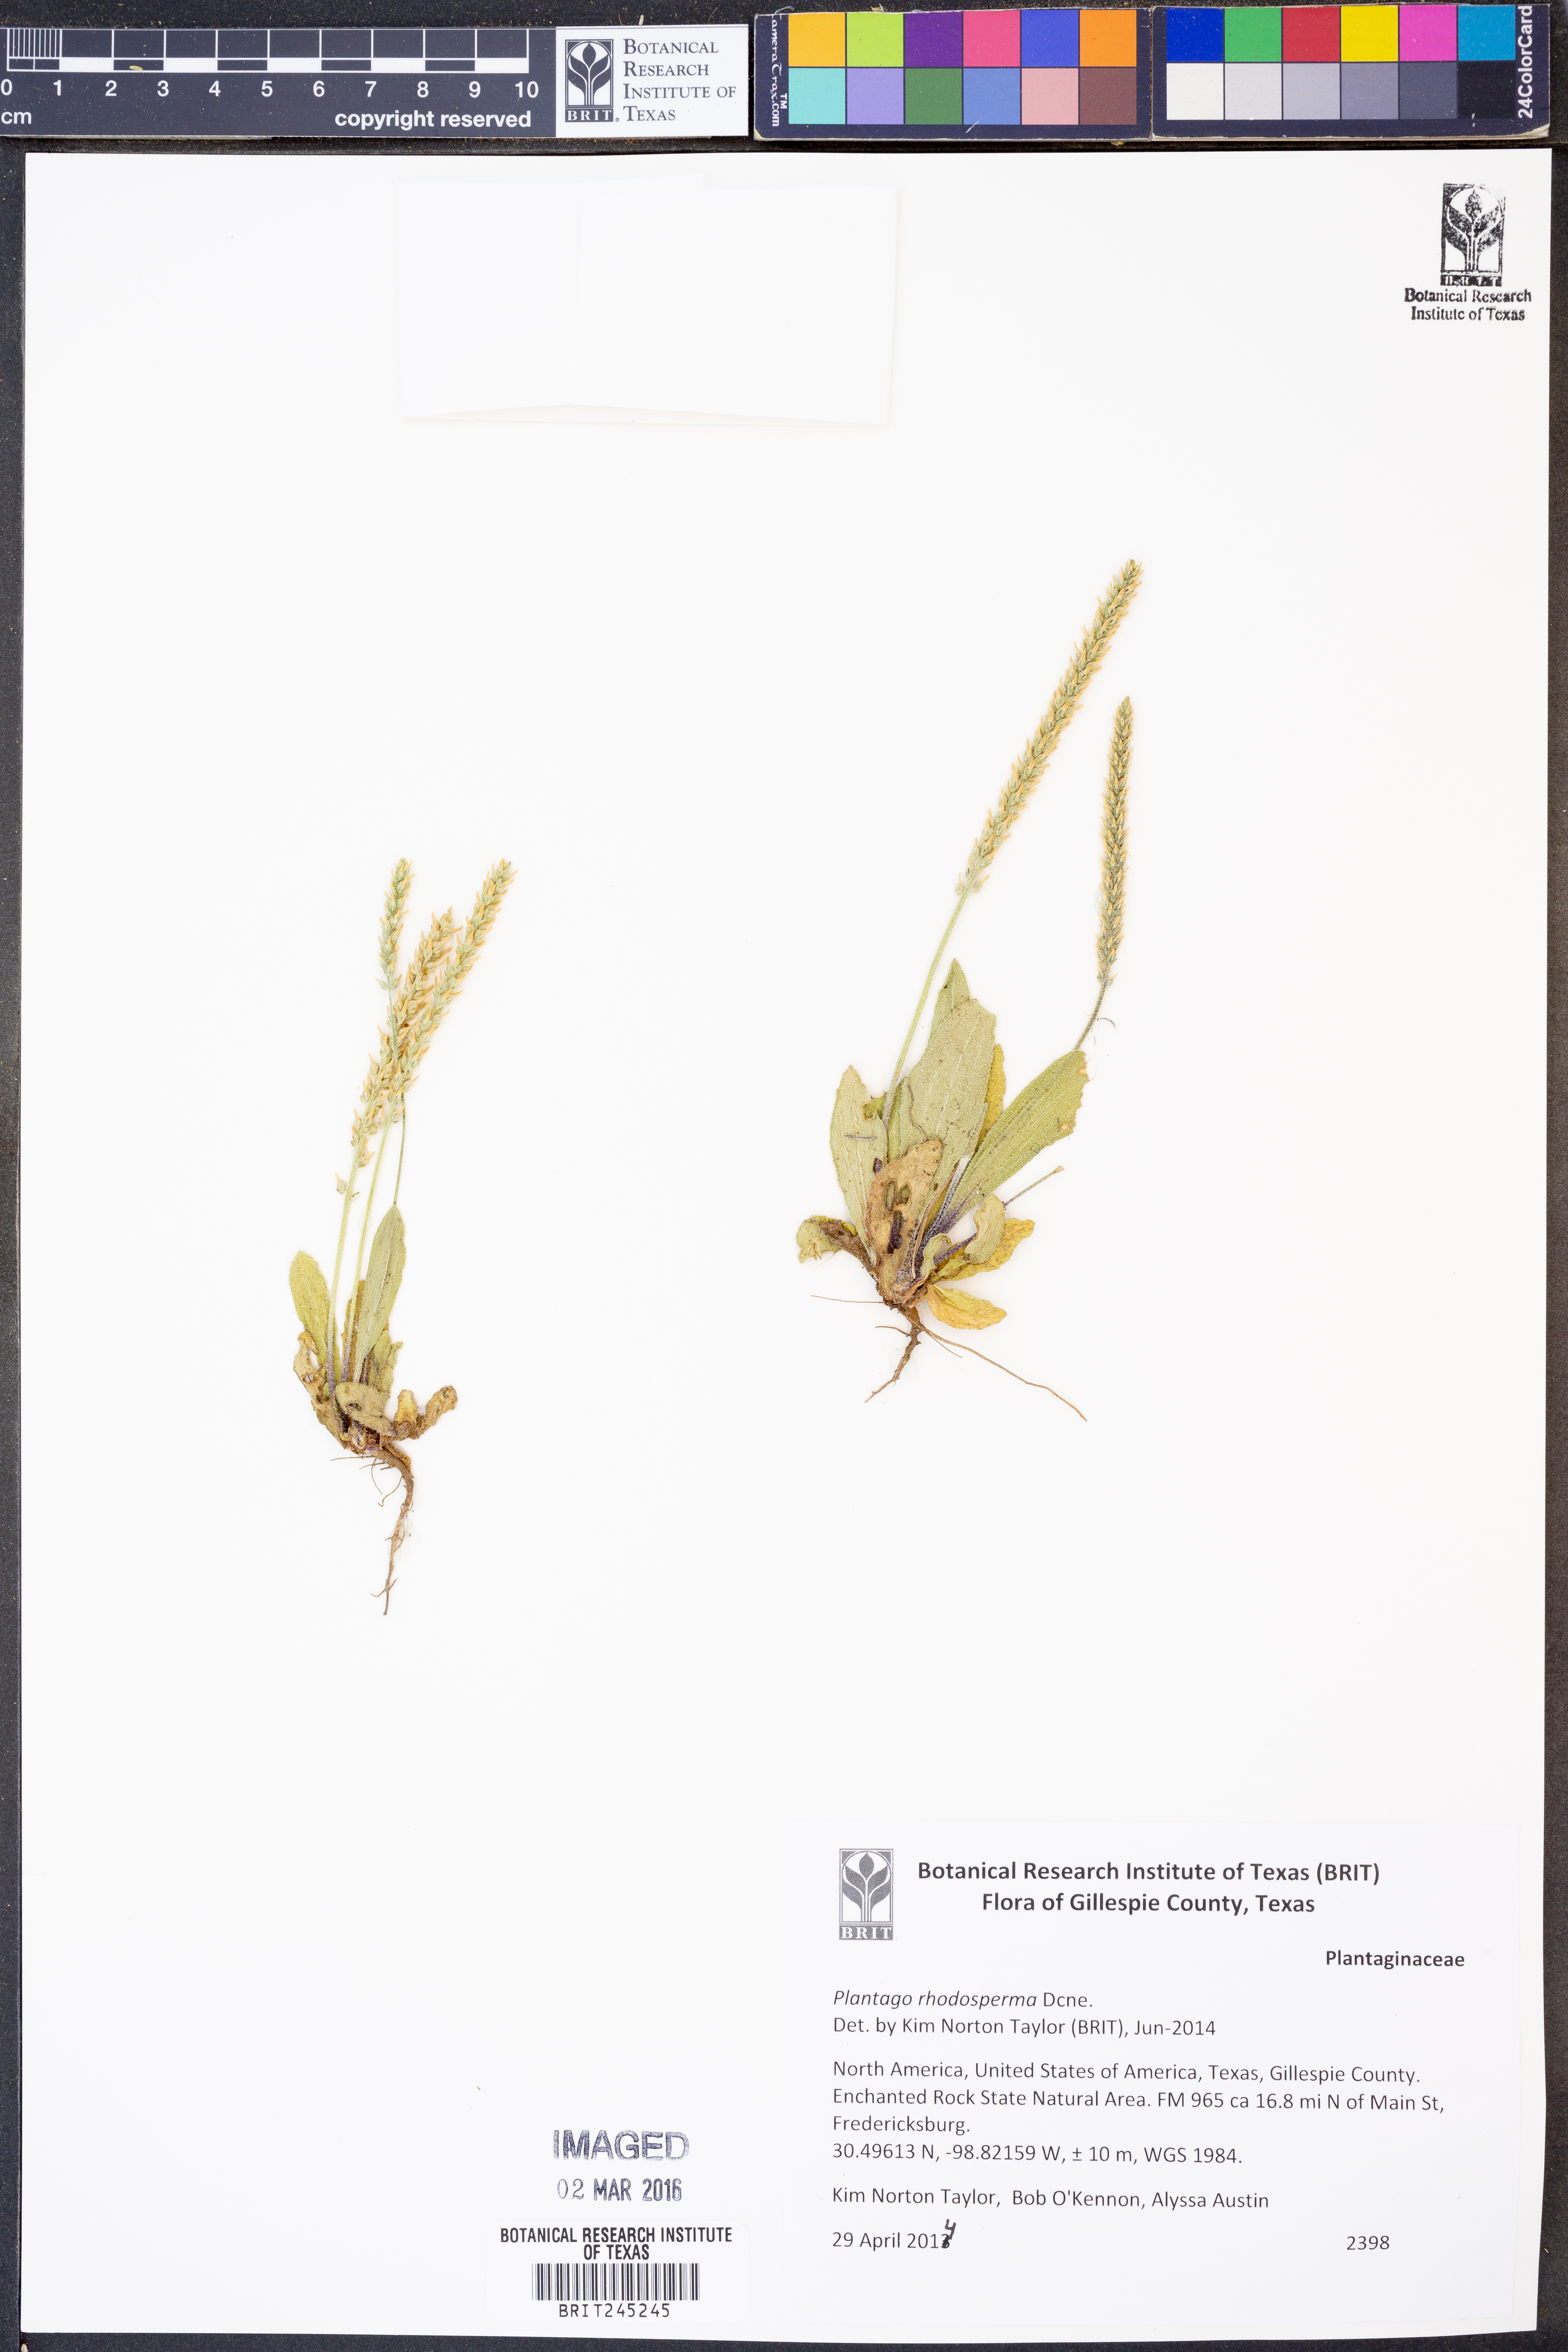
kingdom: Plantae
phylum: Tracheophyta
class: Magnoliopsida
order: Lamiales
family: Plantaginaceae
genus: Plantago
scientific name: Plantago rhodosperma
